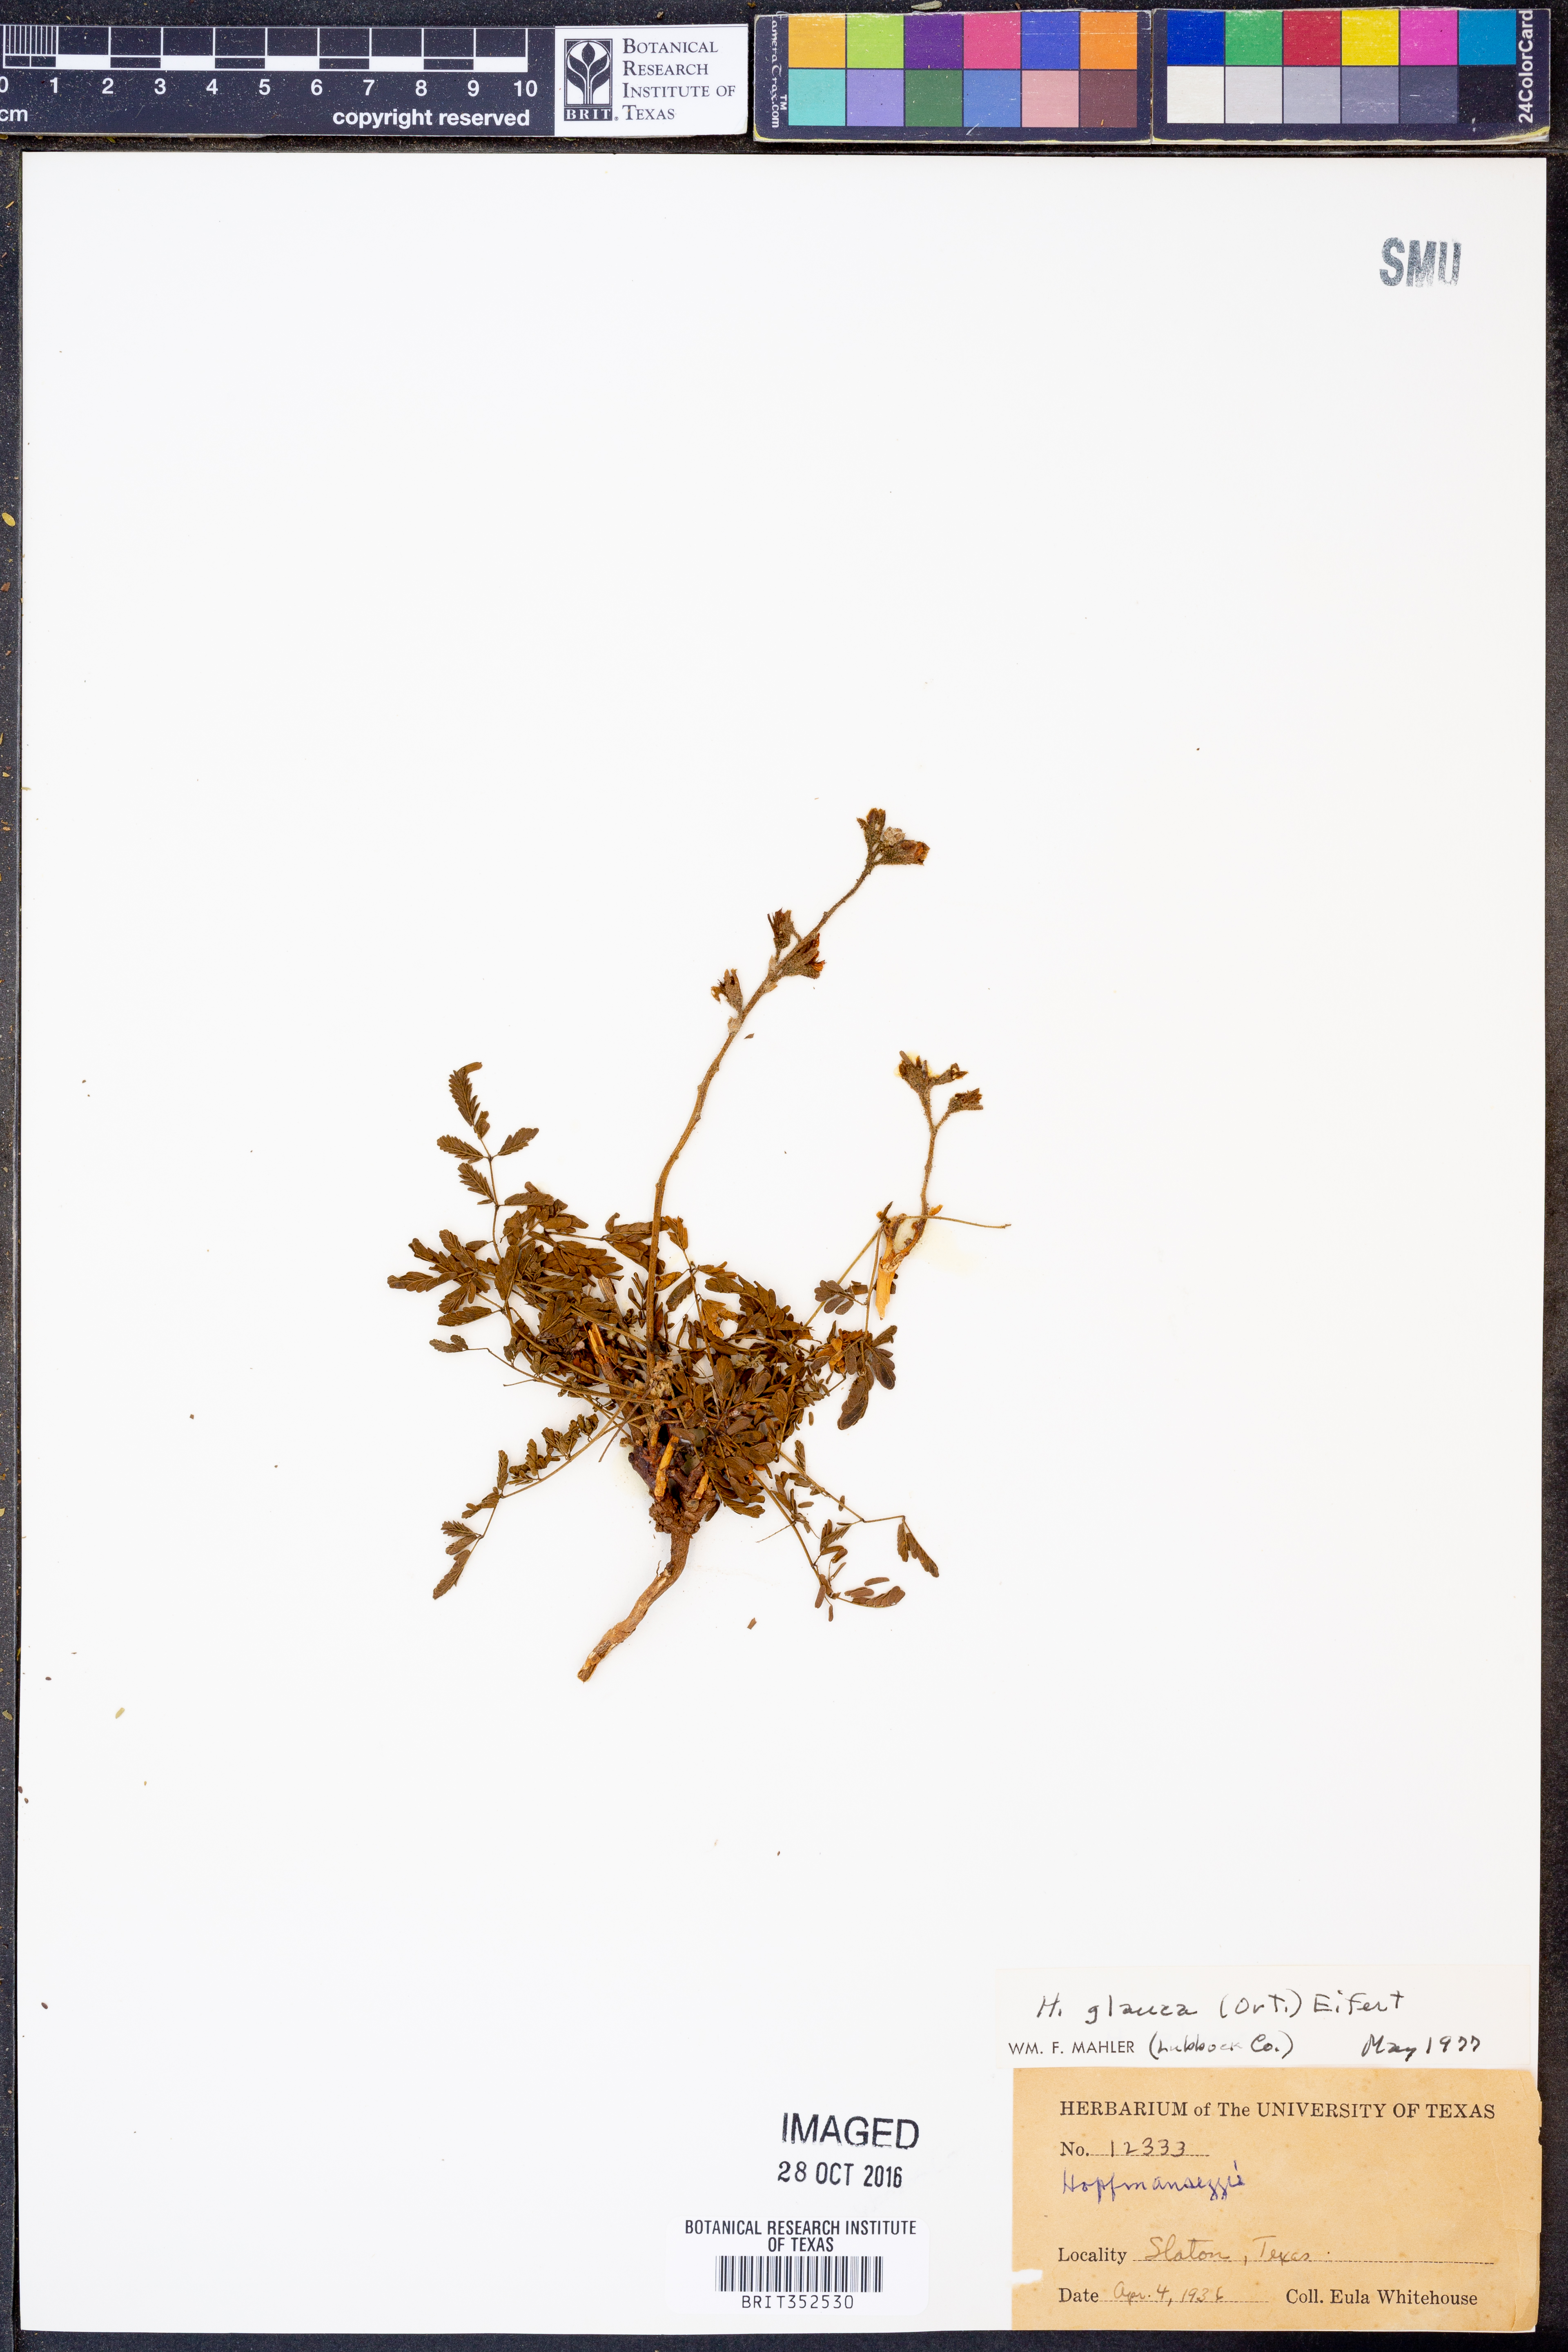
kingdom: Plantae
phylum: Tracheophyta
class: Magnoliopsida
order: Fabales
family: Fabaceae
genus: Hoffmannseggia
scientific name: Hoffmannseggia glauca
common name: Pignut
